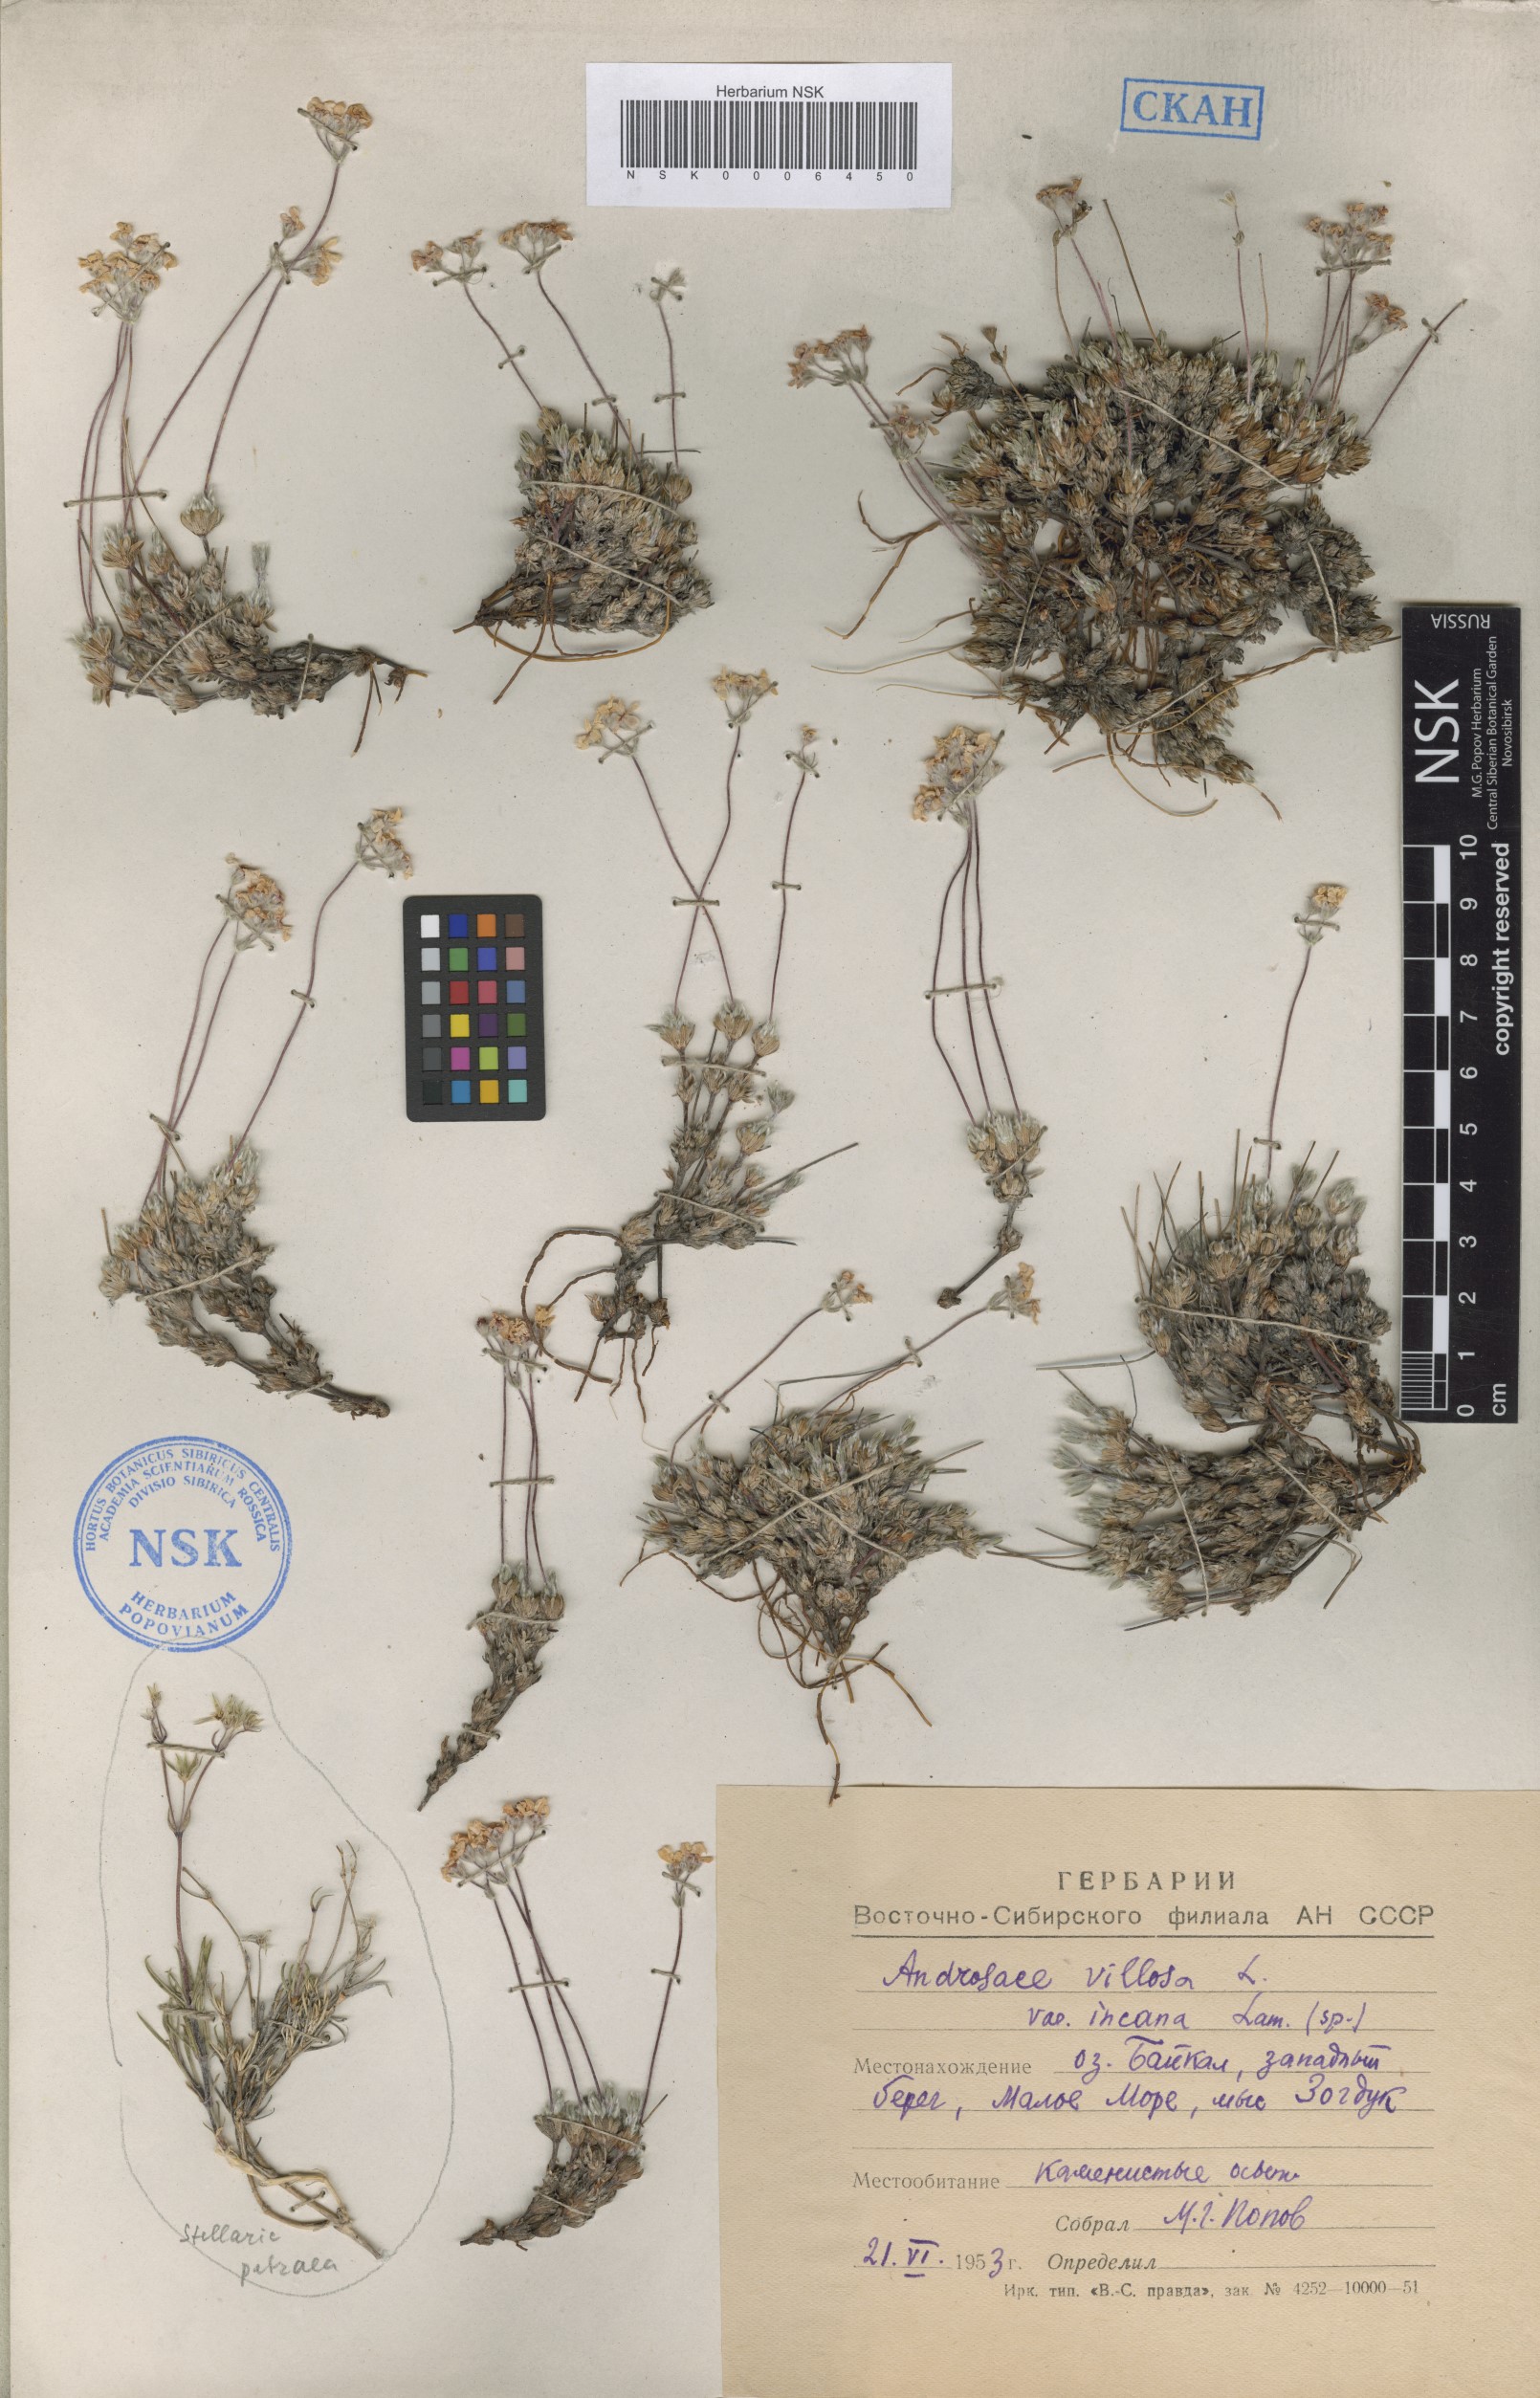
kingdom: Plantae
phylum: Tracheophyta
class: Magnoliopsida
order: Ericales
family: Primulaceae
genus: Androsace
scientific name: Androsace incana
